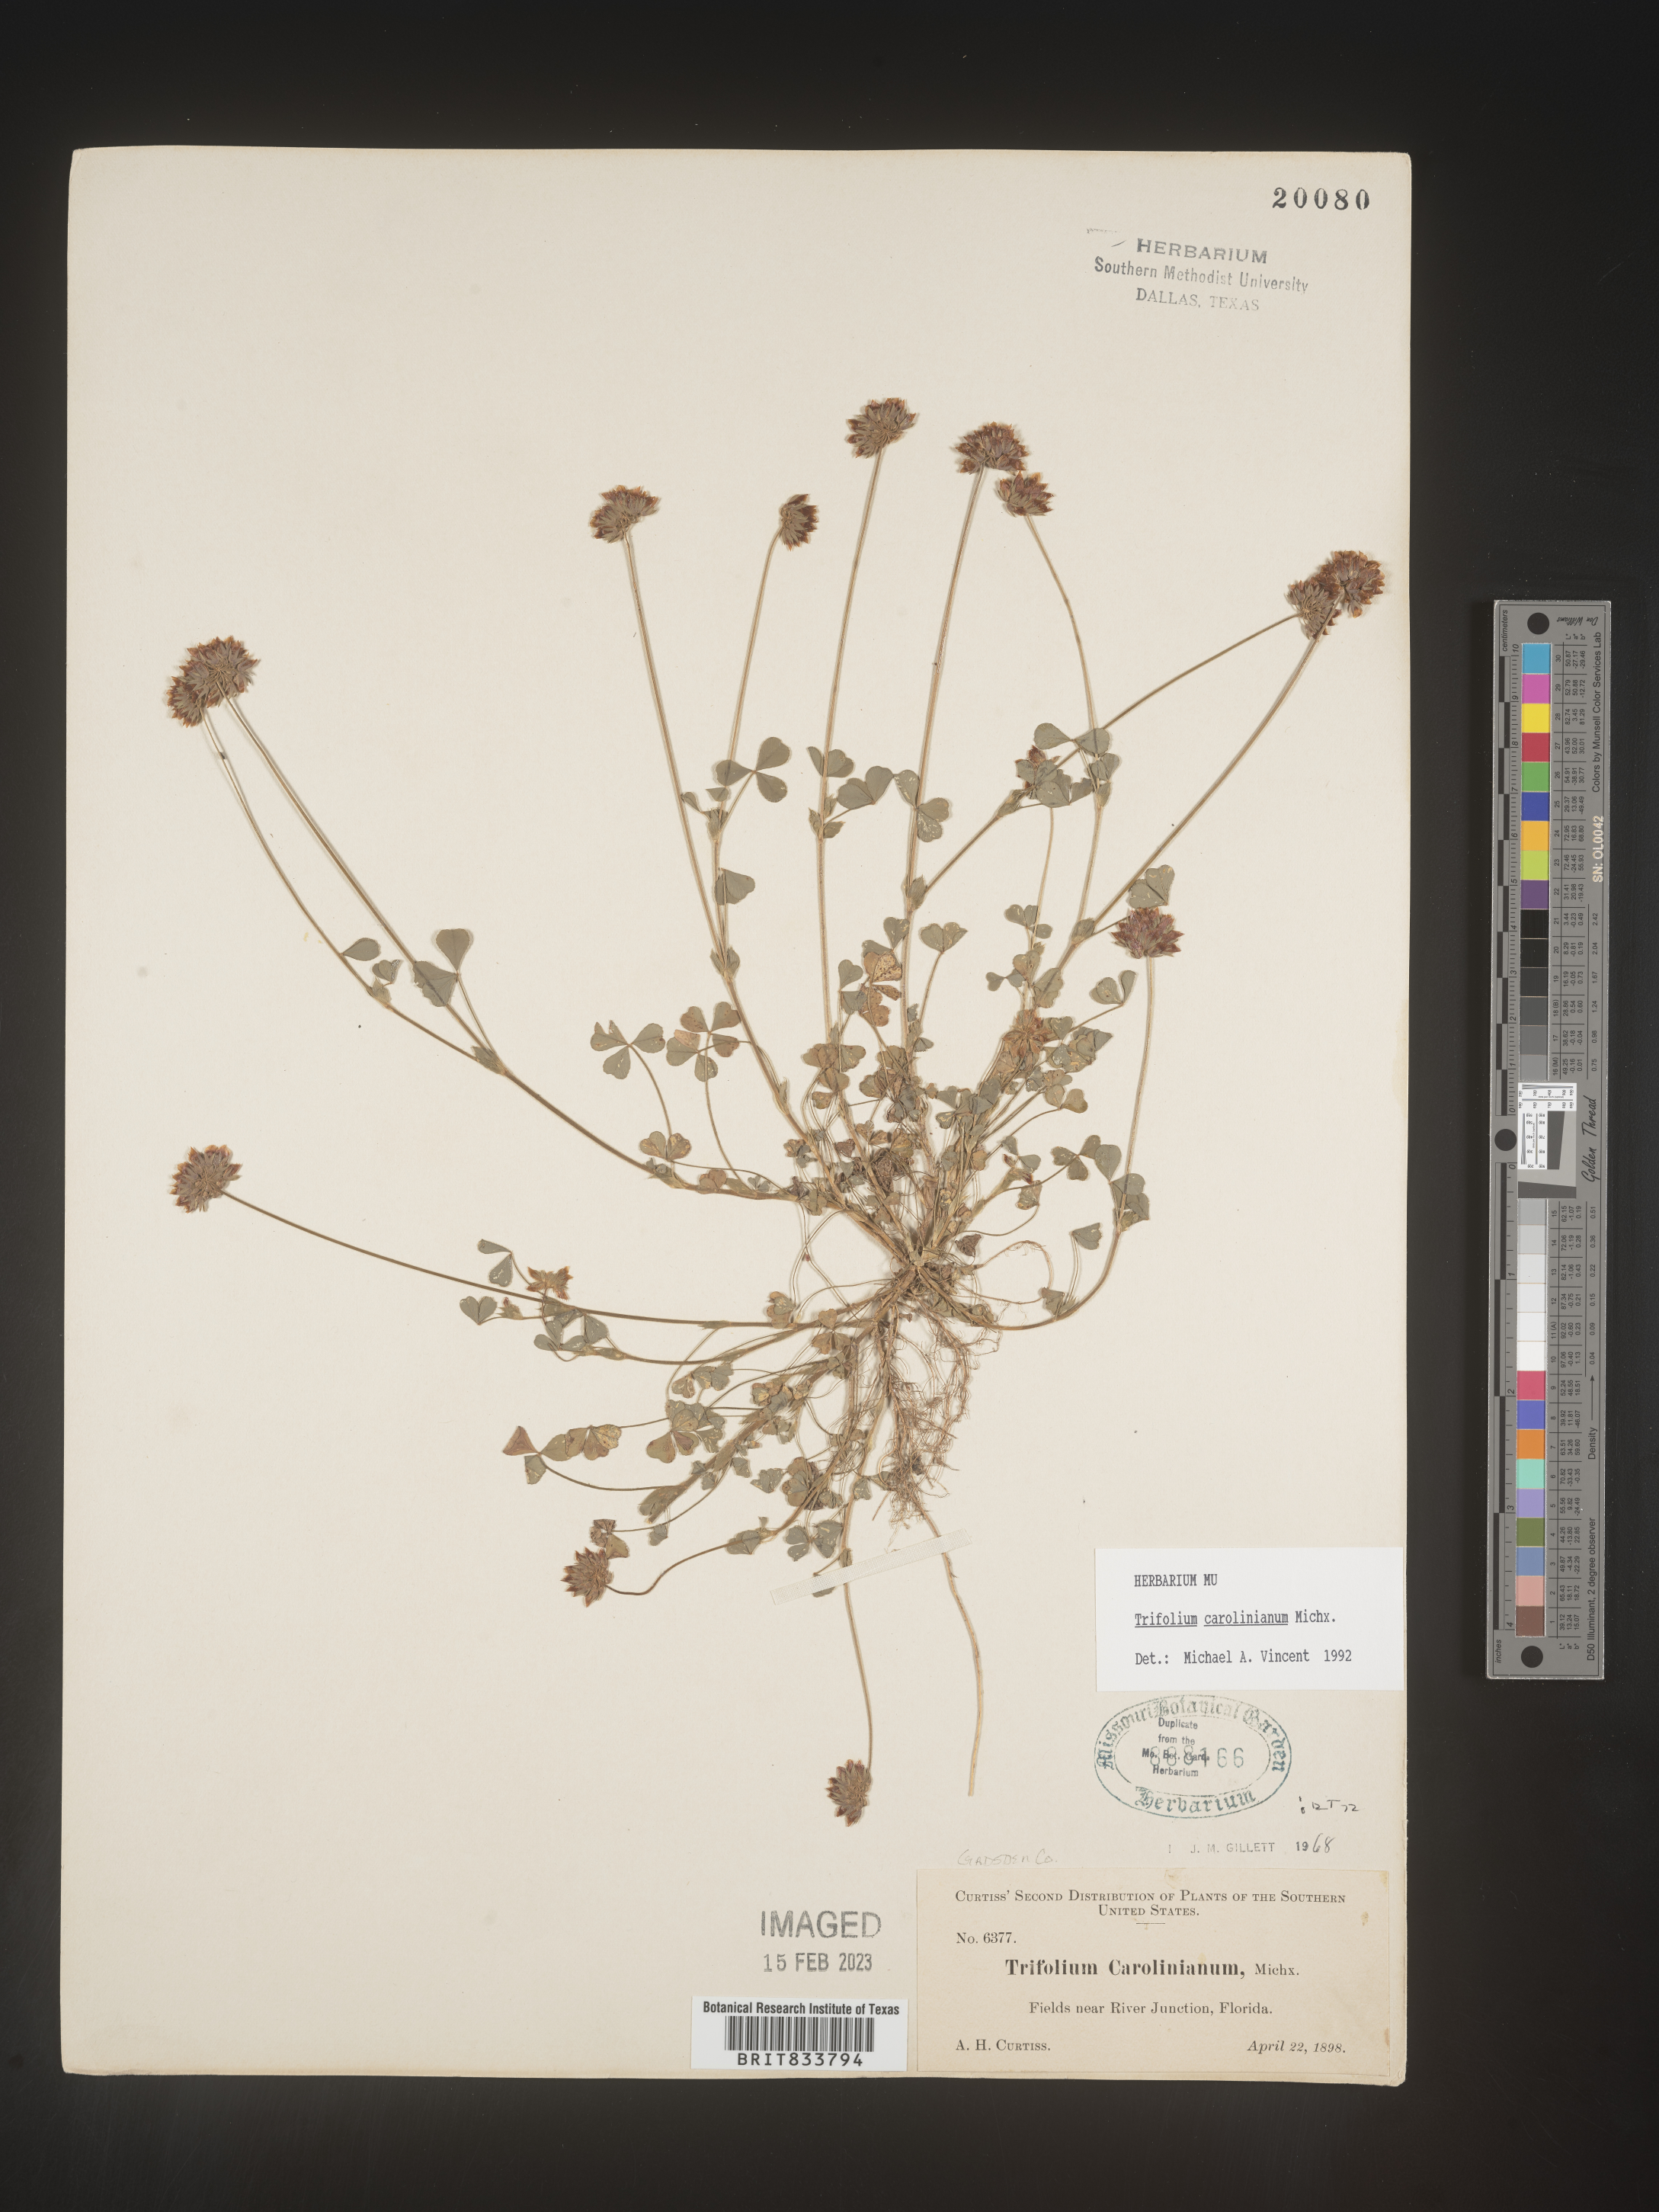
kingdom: Plantae
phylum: Tracheophyta
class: Magnoliopsida
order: Fabales
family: Fabaceae
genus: Trifolium
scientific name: Trifolium carolinianum
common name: Wild white clover
